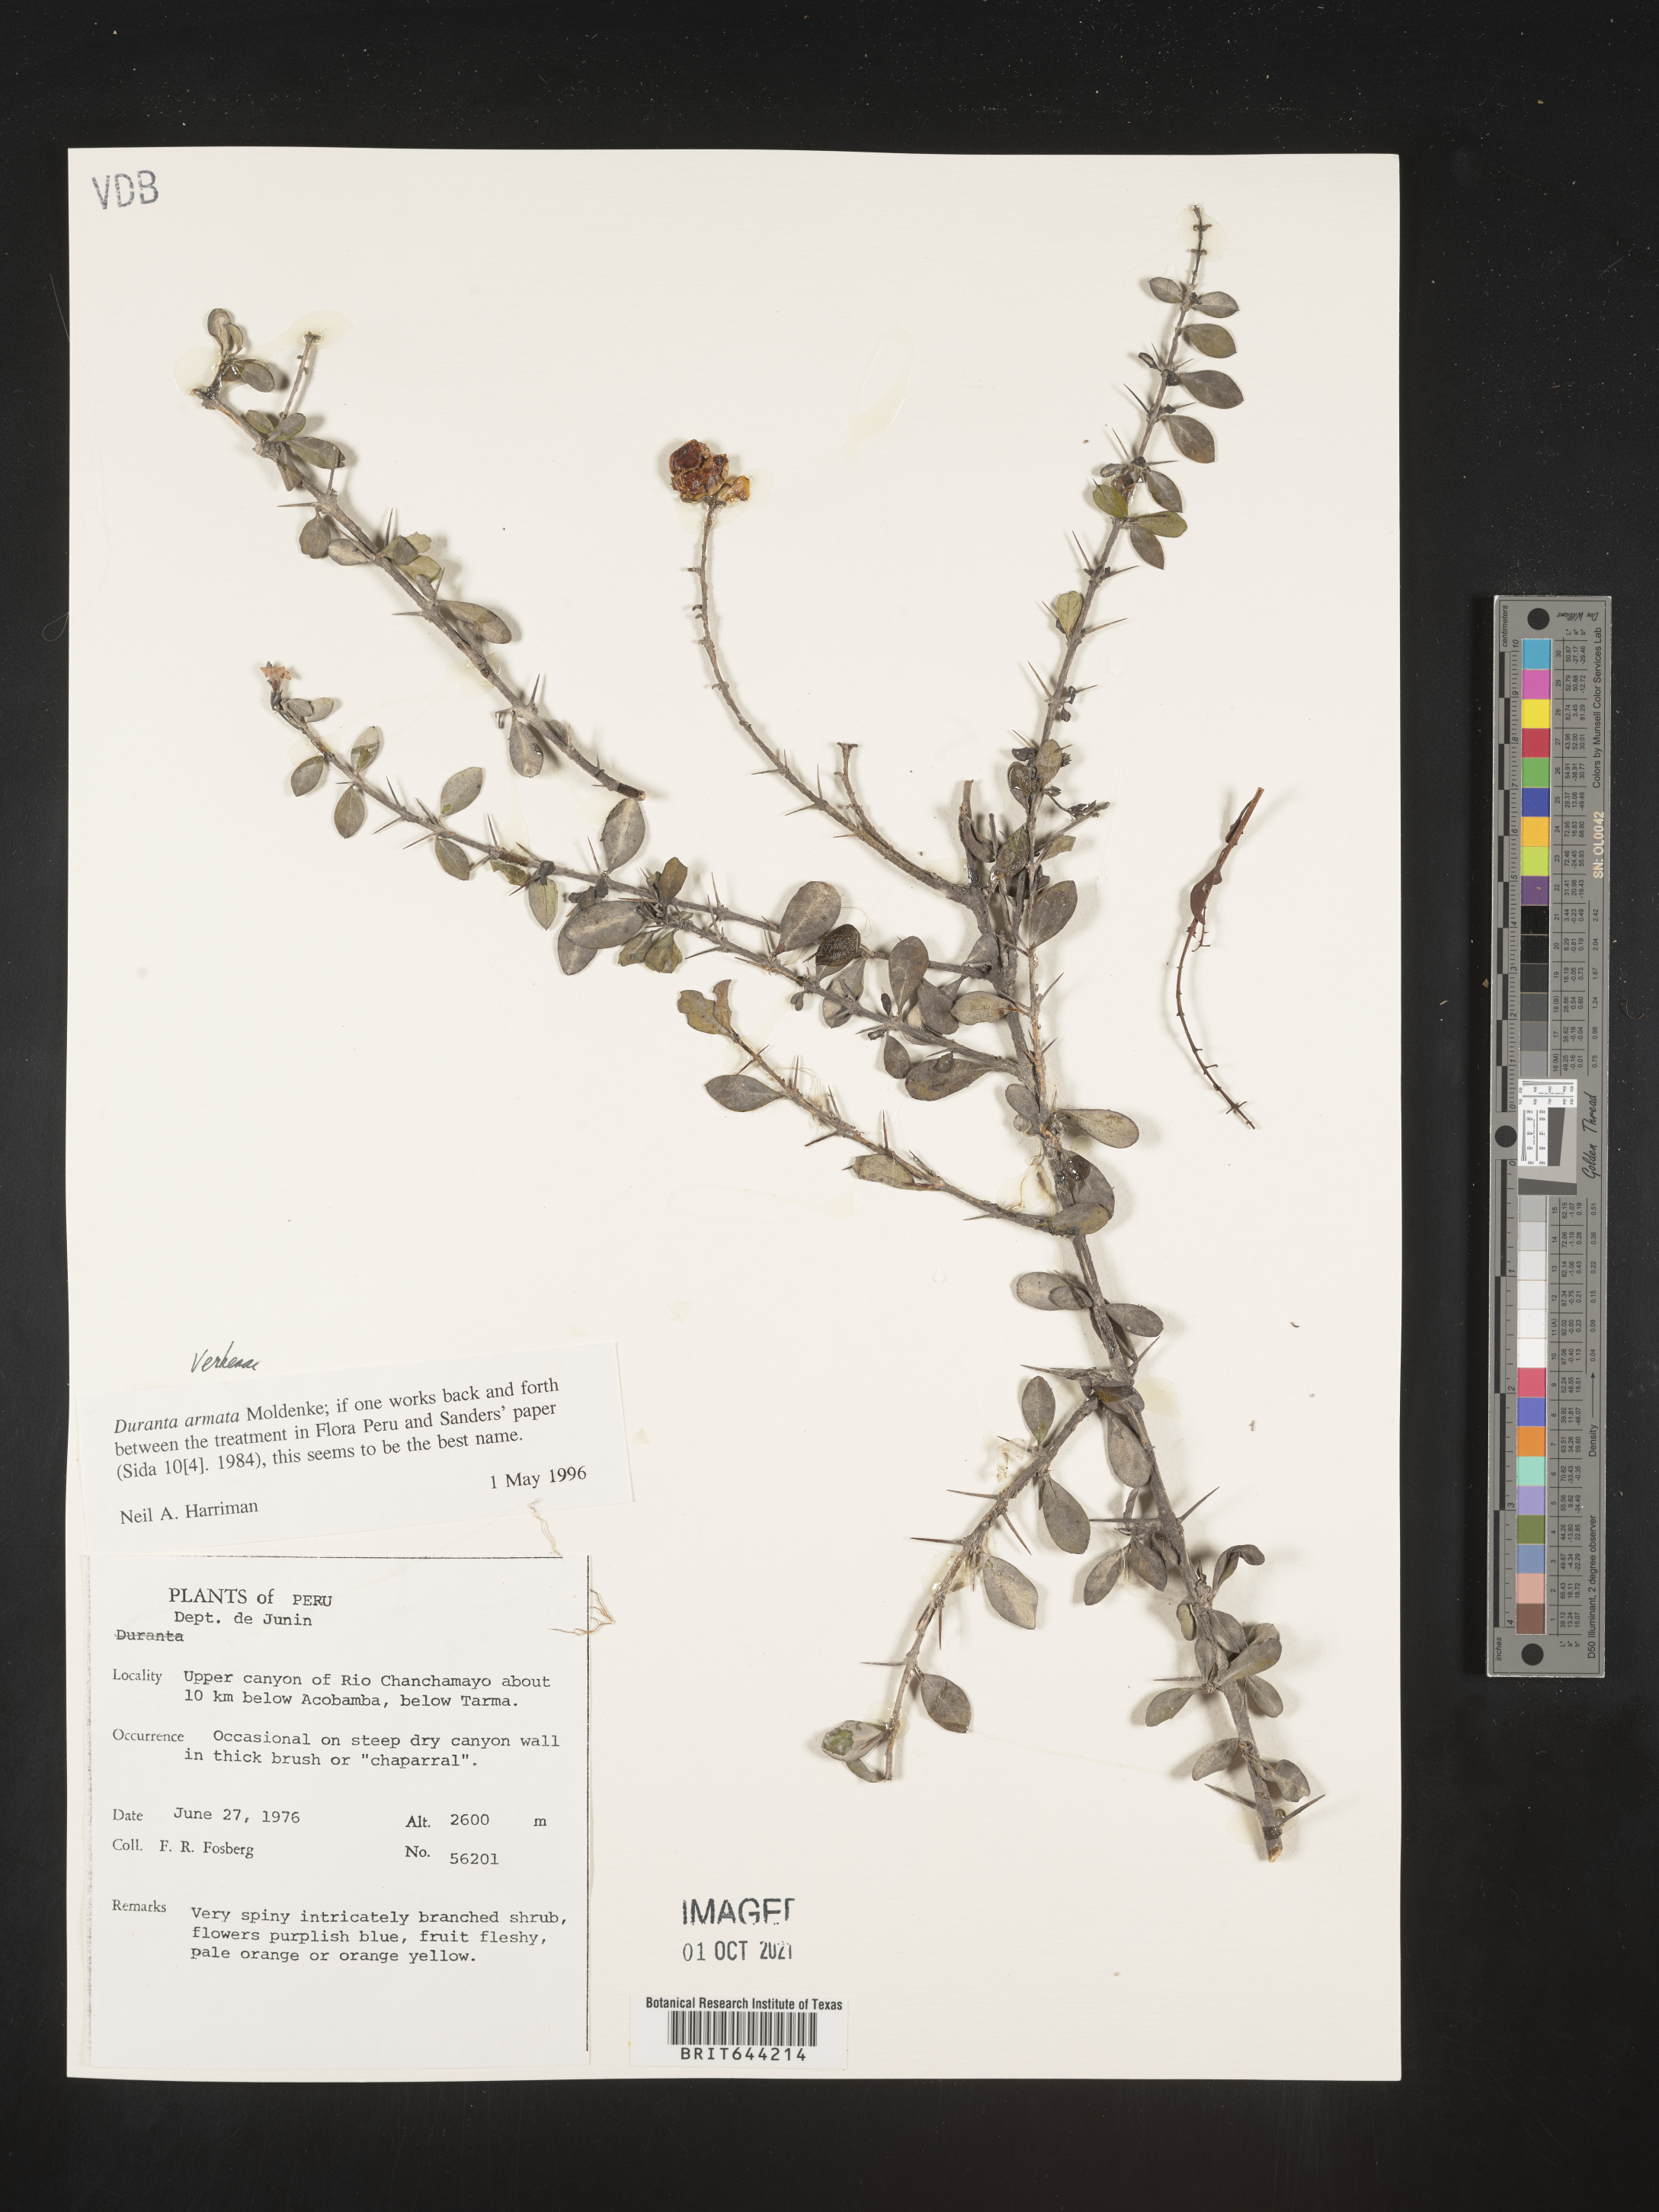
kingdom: Plantae
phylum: Tracheophyta
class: Magnoliopsida
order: Lamiales
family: Verbenaceae
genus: Duranta
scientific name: Duranta
